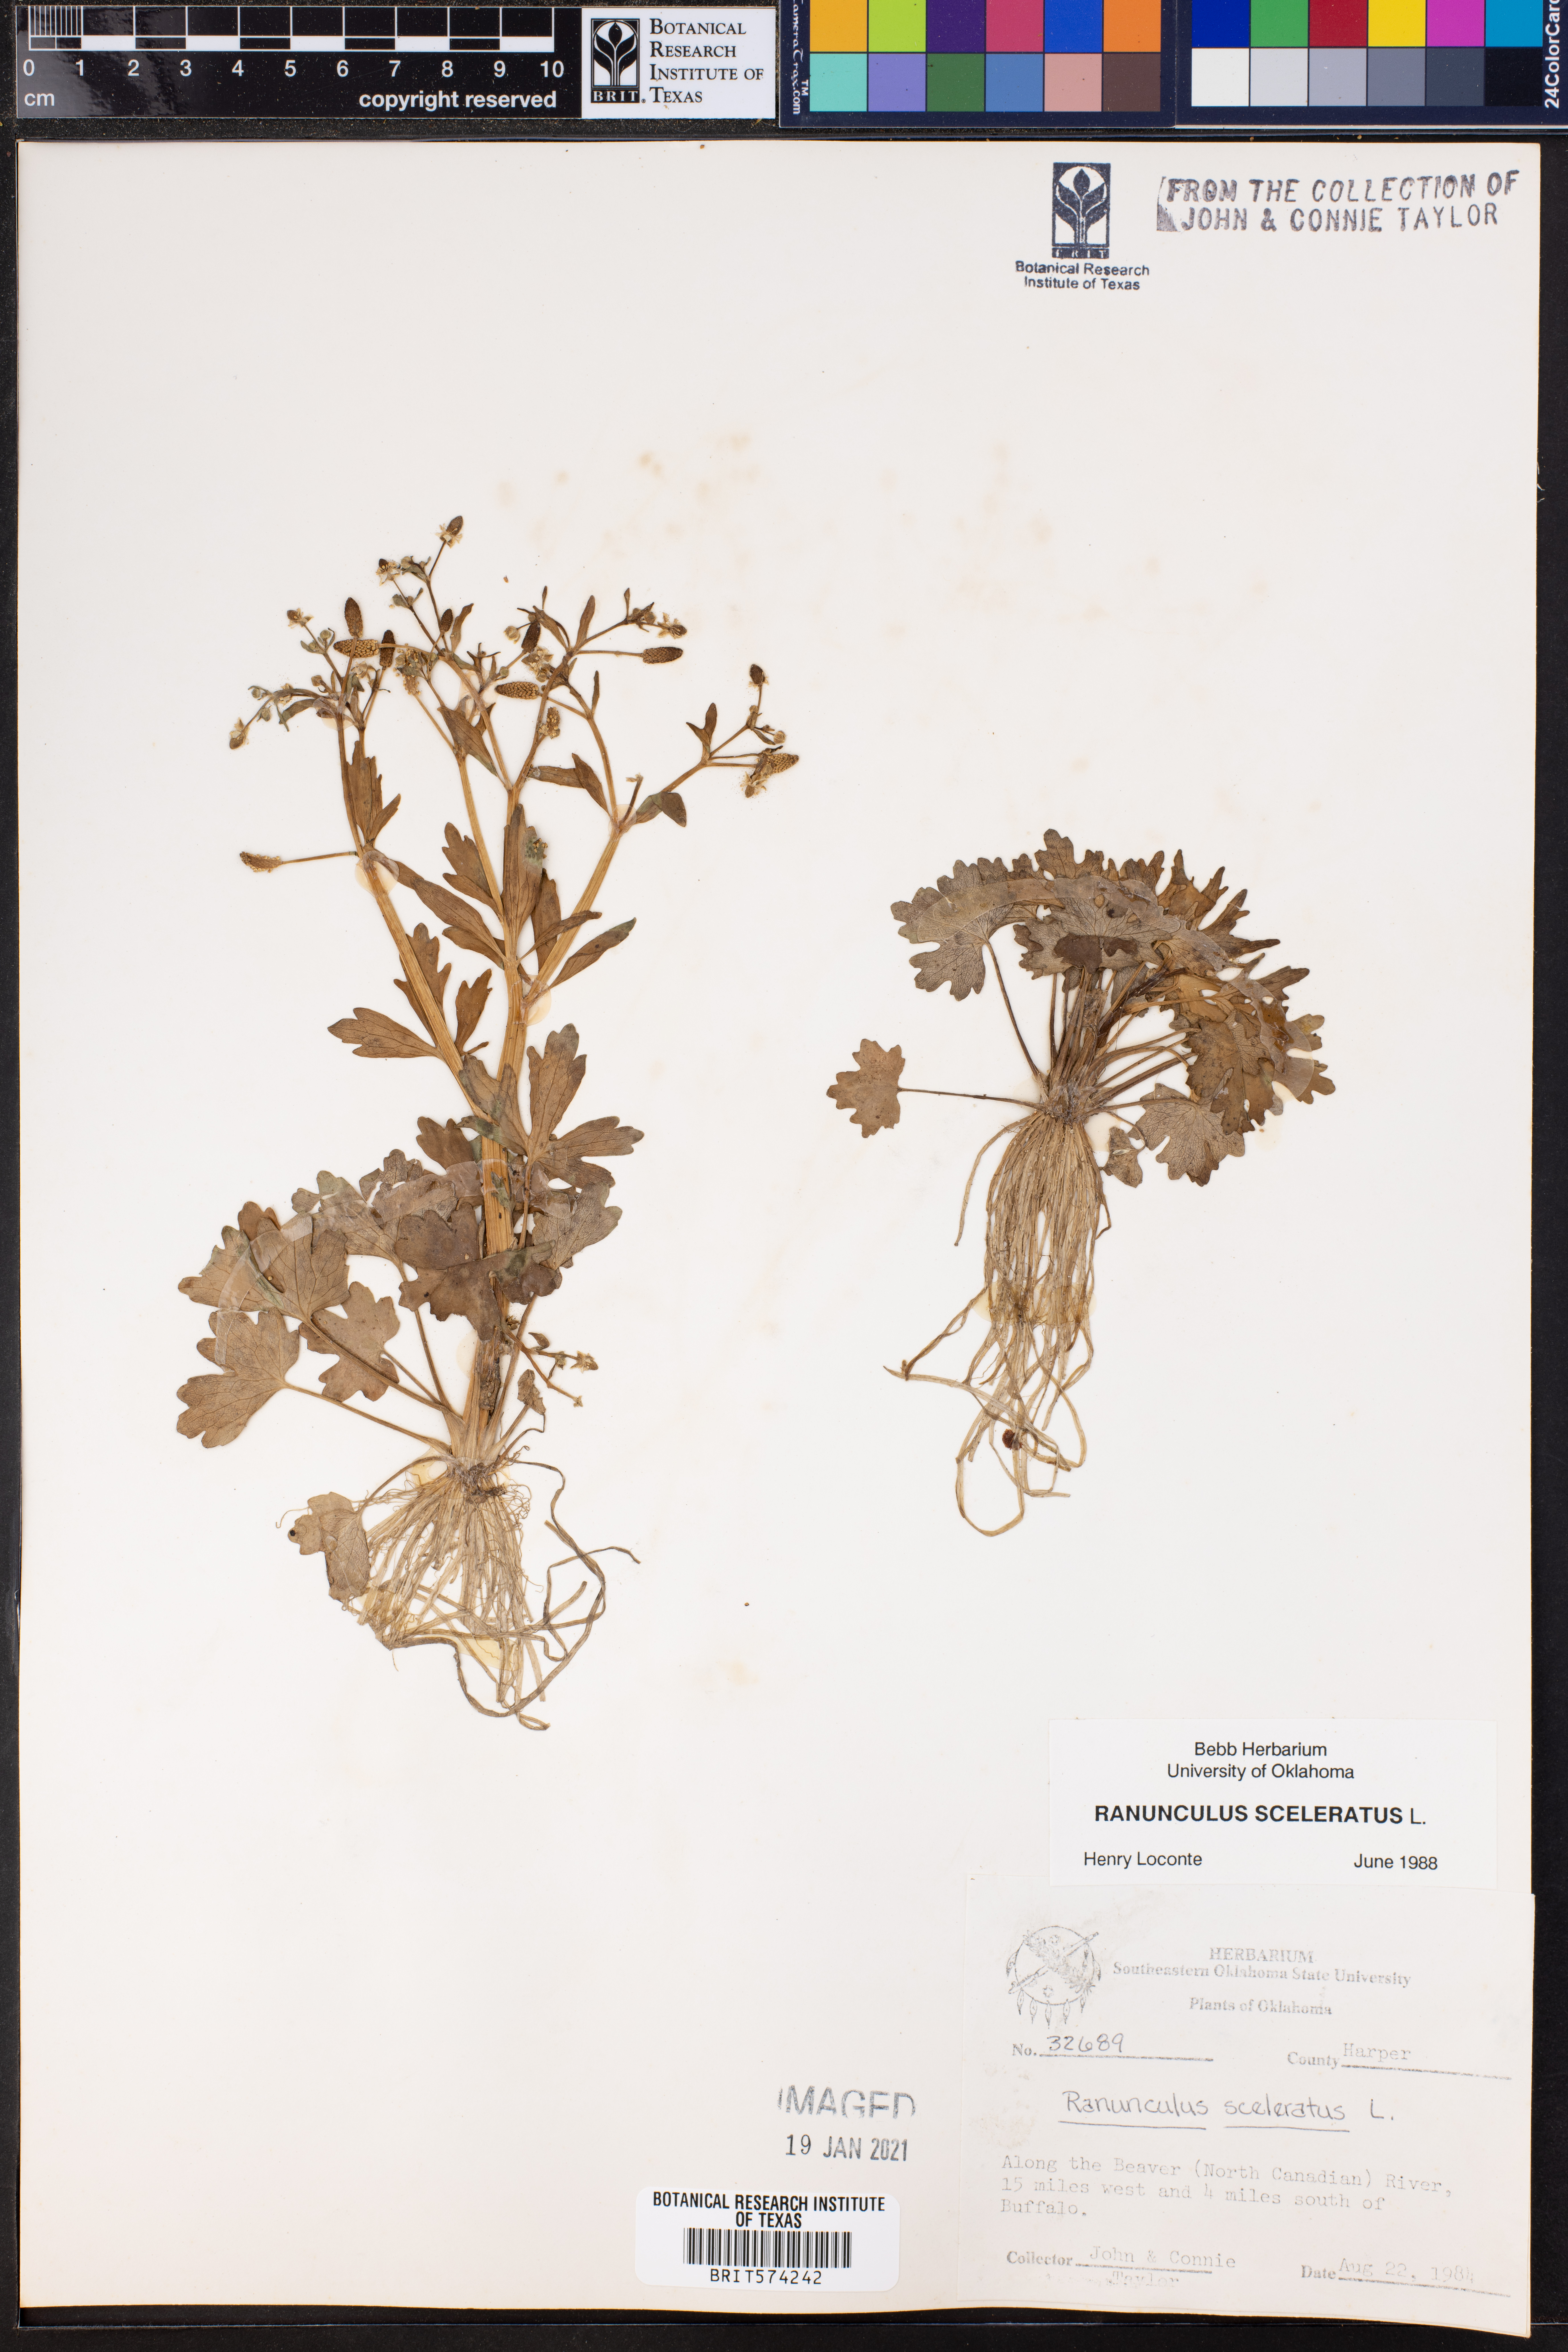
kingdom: Plantae
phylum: Tracheophyta
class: Magnoliopsida
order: Ranunculales
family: Ranunculaceae
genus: Ranunculus
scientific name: Ranunculus sceleratus
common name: Celery-leaved buttercup
